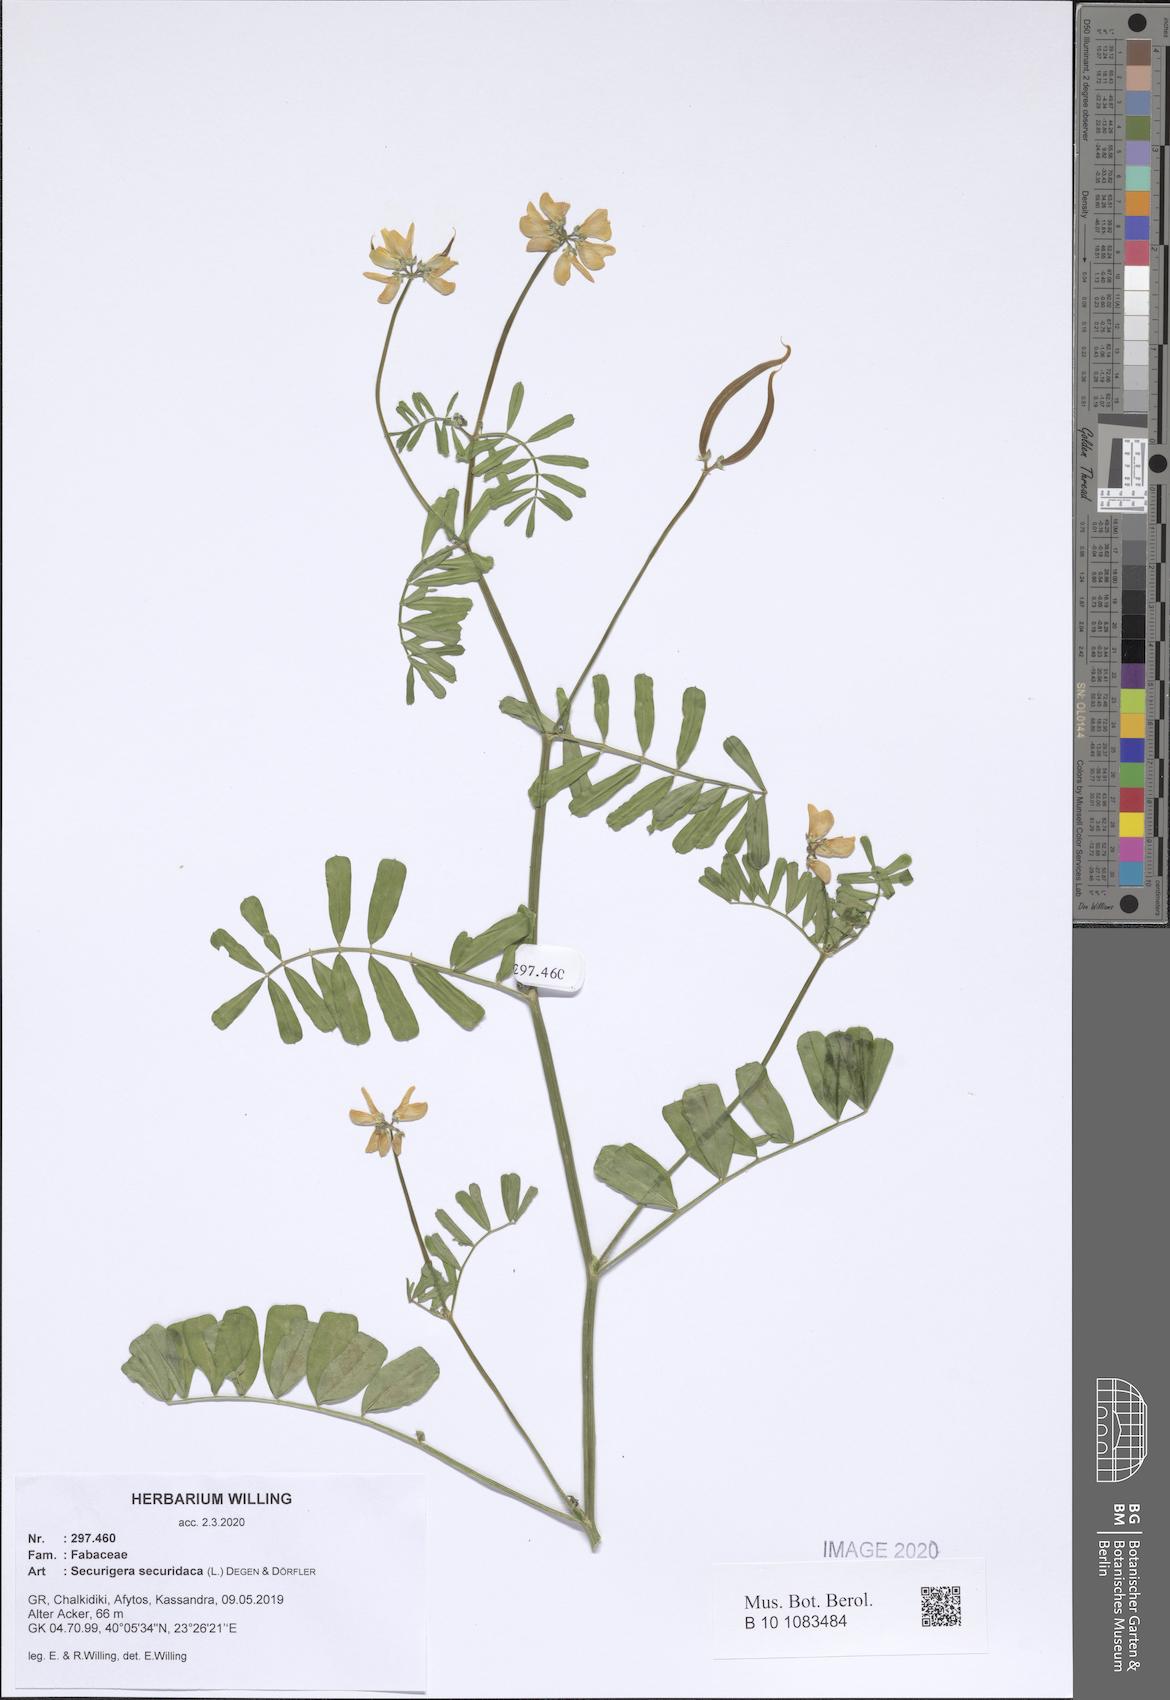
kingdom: Plantae
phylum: Tracheophyta
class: Magnoliopsida
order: Fabales
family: Fabaceae
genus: Coronilla
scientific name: Coronilla securidaca
